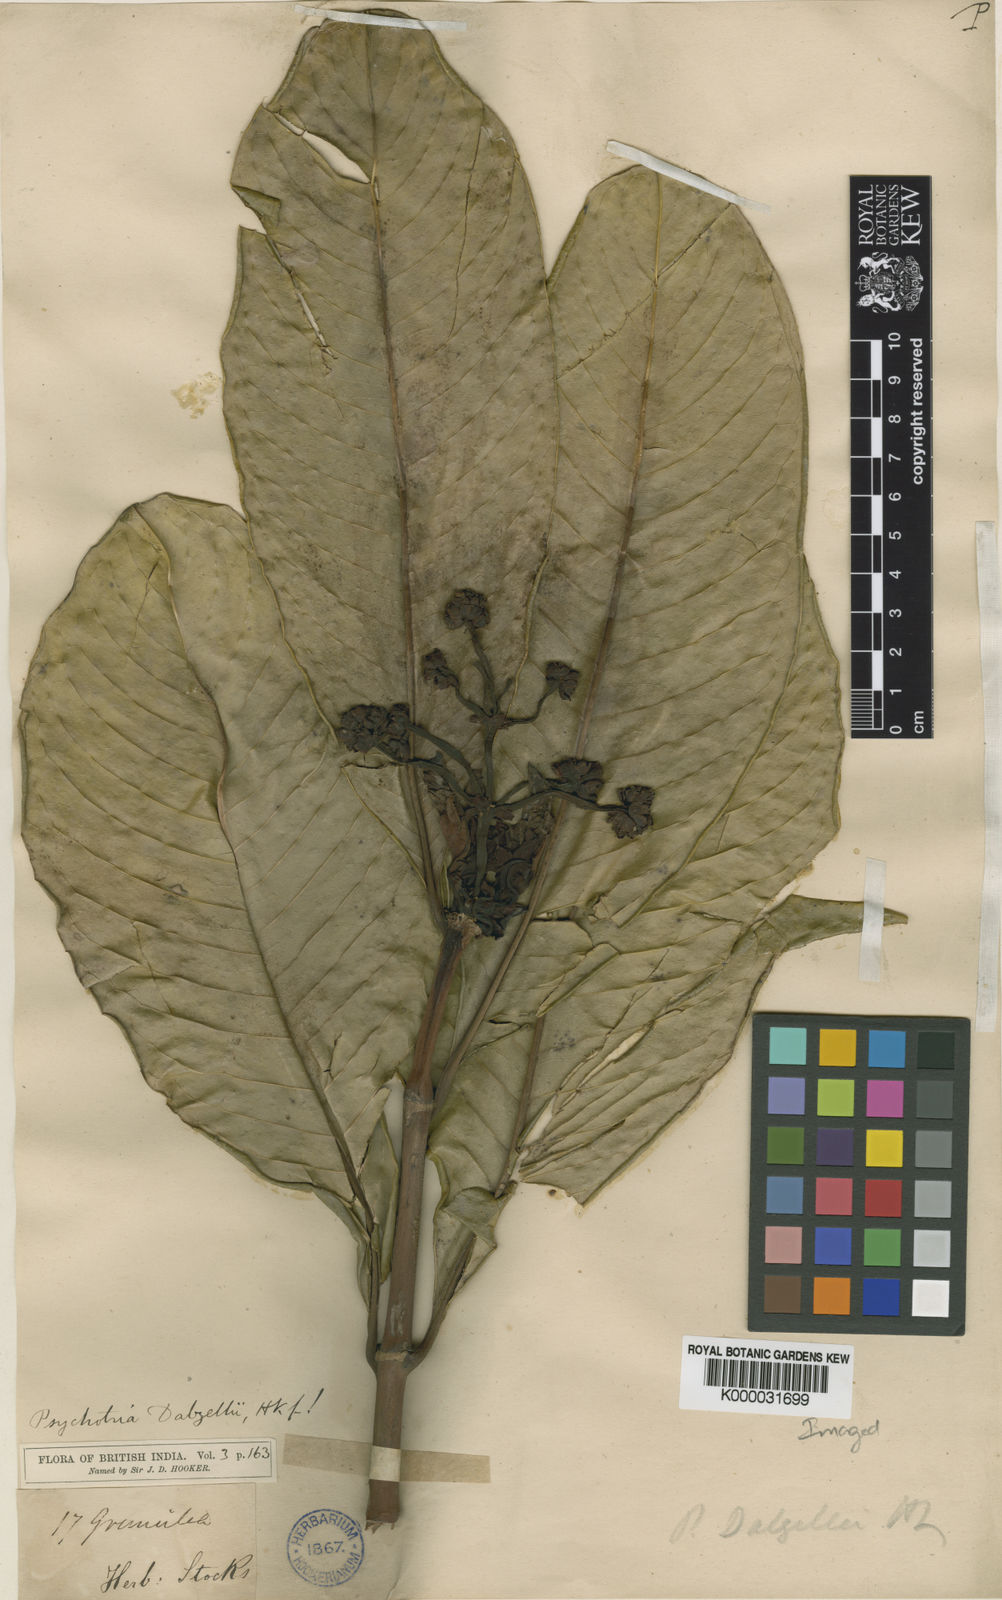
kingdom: Plantae
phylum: Tracheophyta
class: Magnoliopsida
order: Gentianales
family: Rubiaceae
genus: Psychotria
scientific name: Psychotria dalzellii
